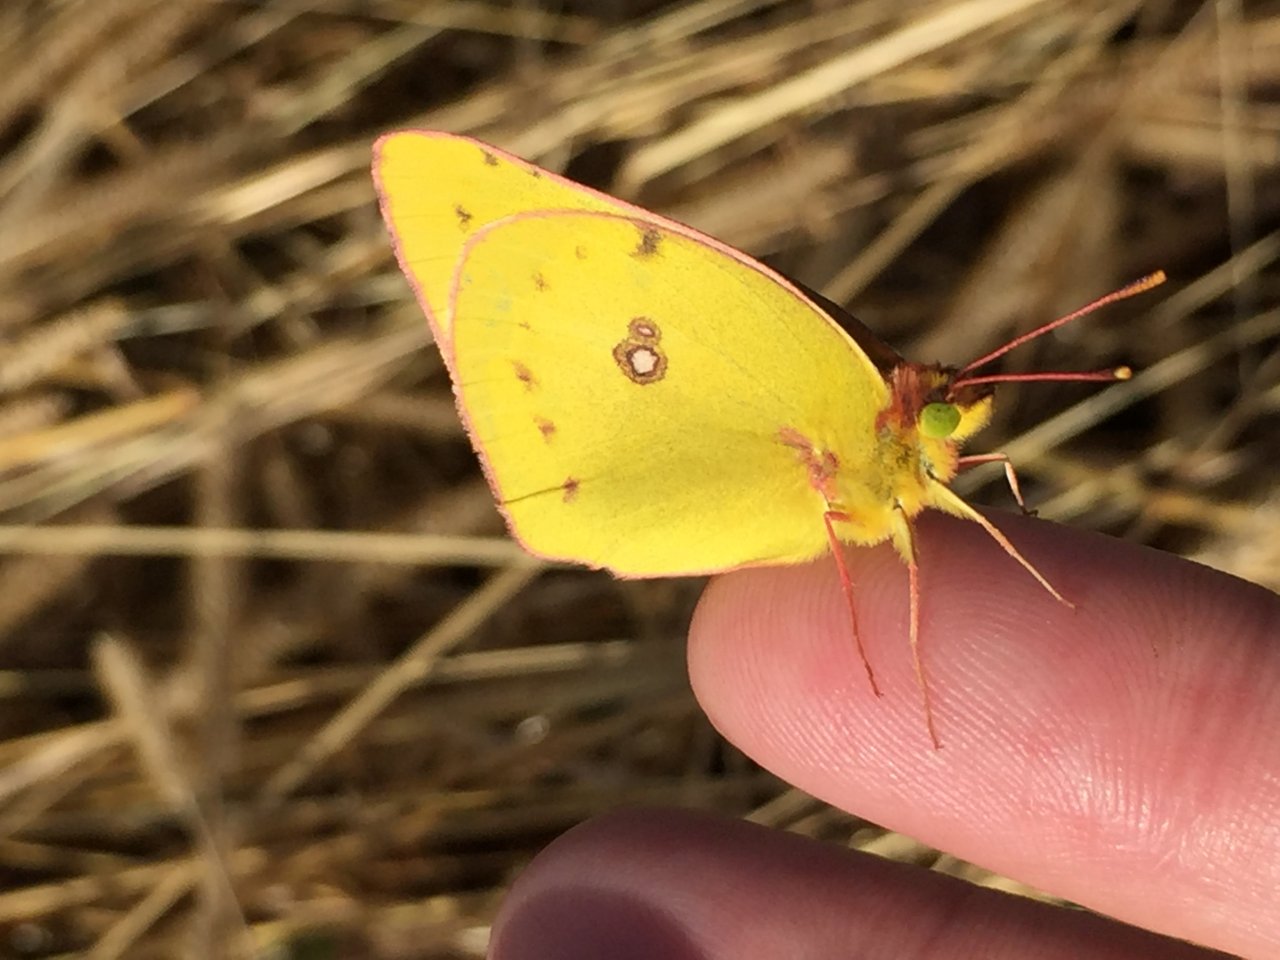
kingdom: Animalia
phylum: Arthropoda
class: Insecta
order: Lepidoptera
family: Pieridae
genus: Colias
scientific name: Colias eurytheme
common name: Orange Sulphur
